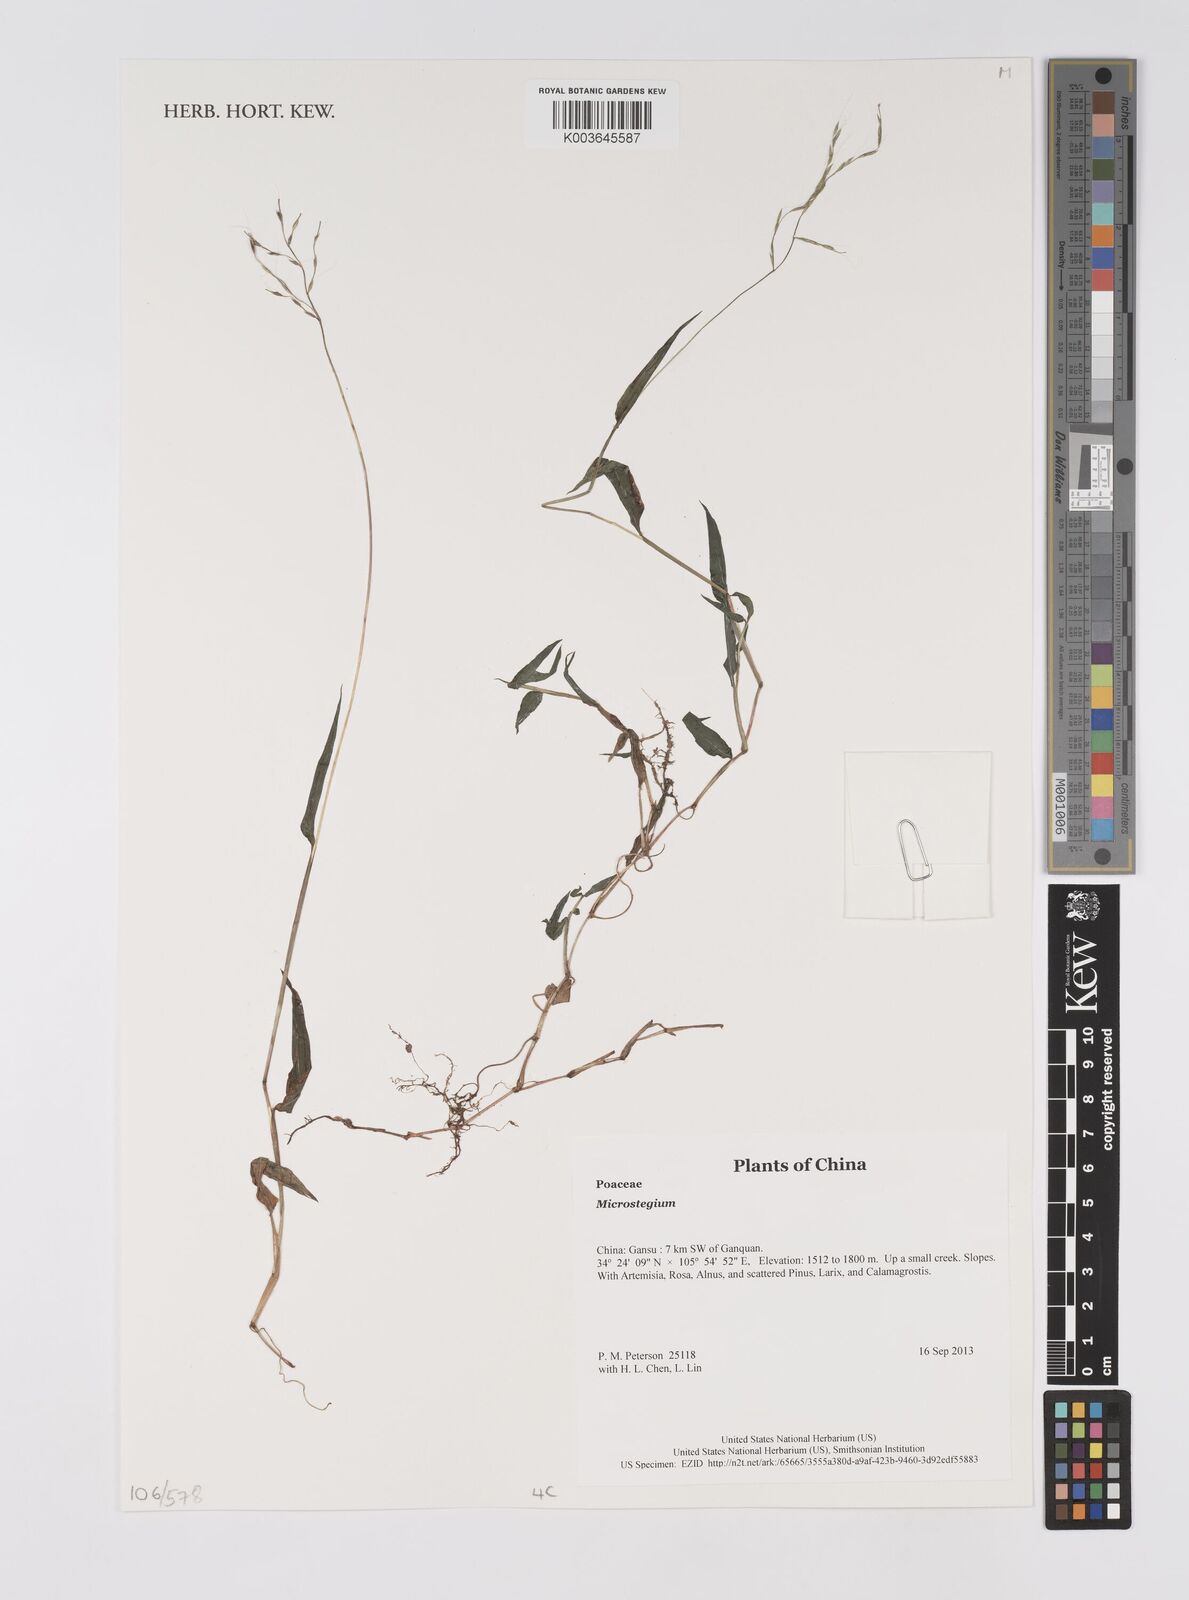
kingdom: Plantae
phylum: Tracheophyta
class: Liliopsida
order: Poales
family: Poaceae
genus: Microstegium
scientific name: Microstegium
